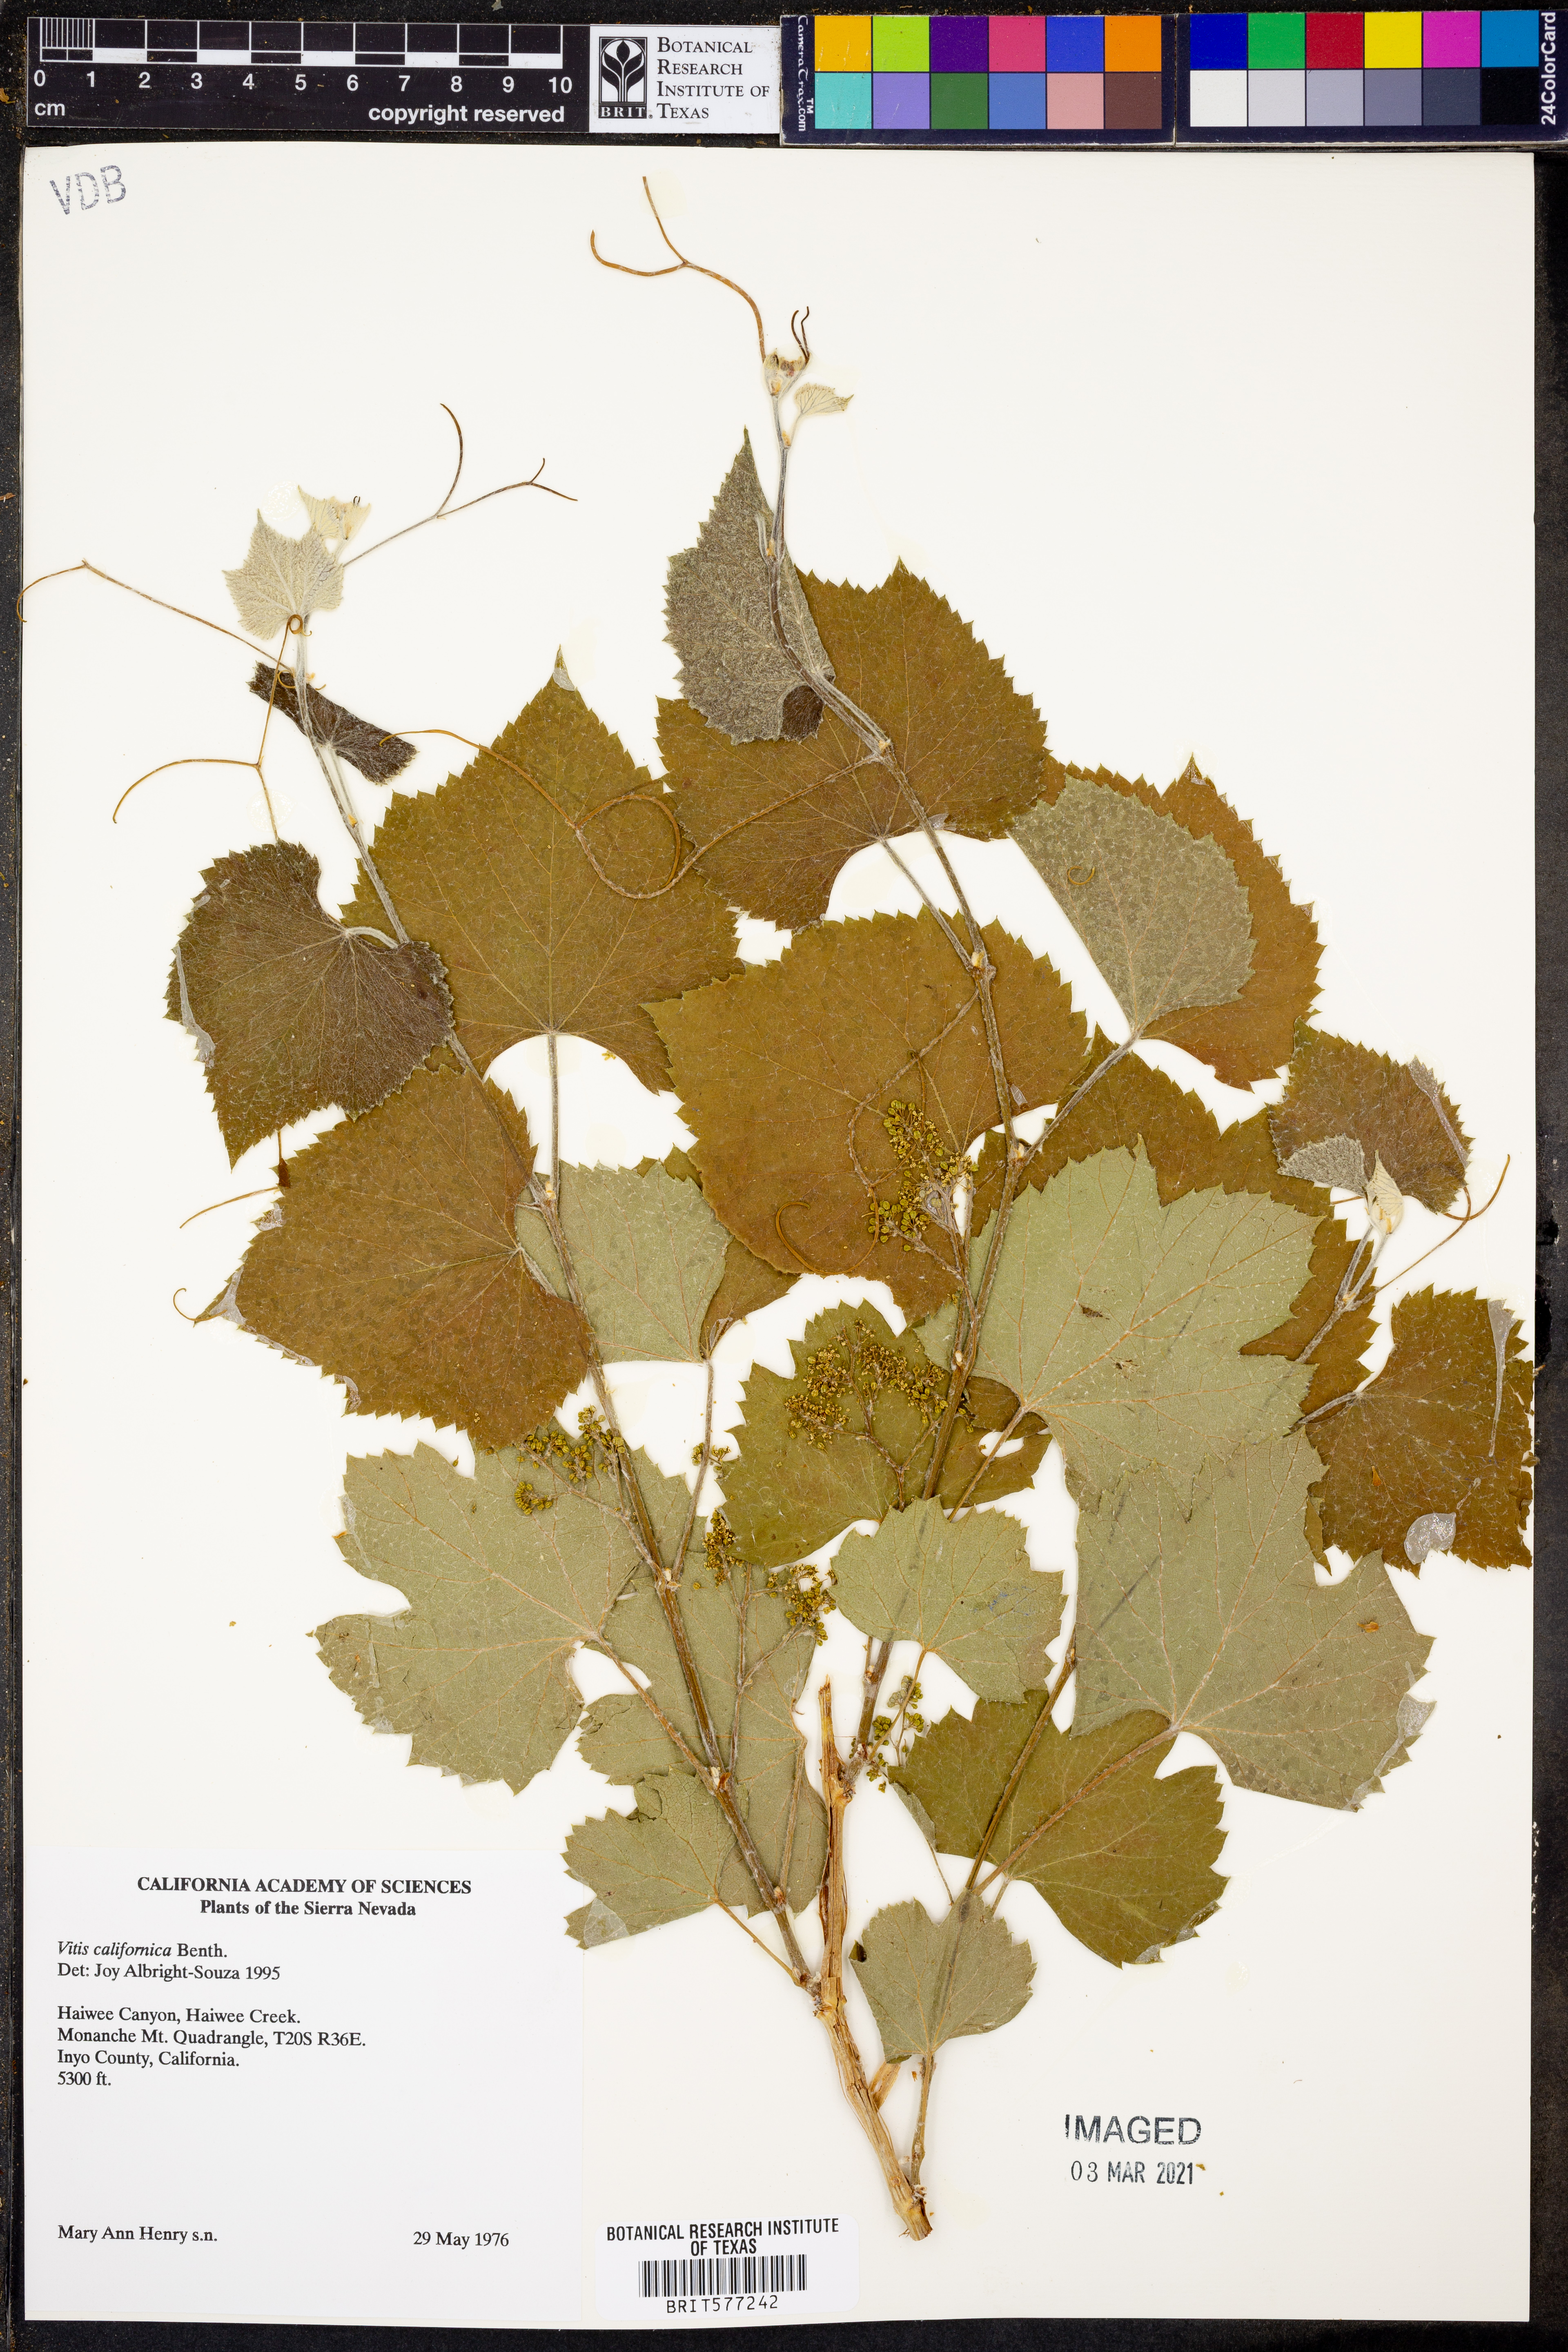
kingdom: Plantae
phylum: Tracheophyta
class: Magnoliopsida
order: Vitales
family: Vitaceae
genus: Vitis
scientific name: Vitis californica
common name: California wild grape
